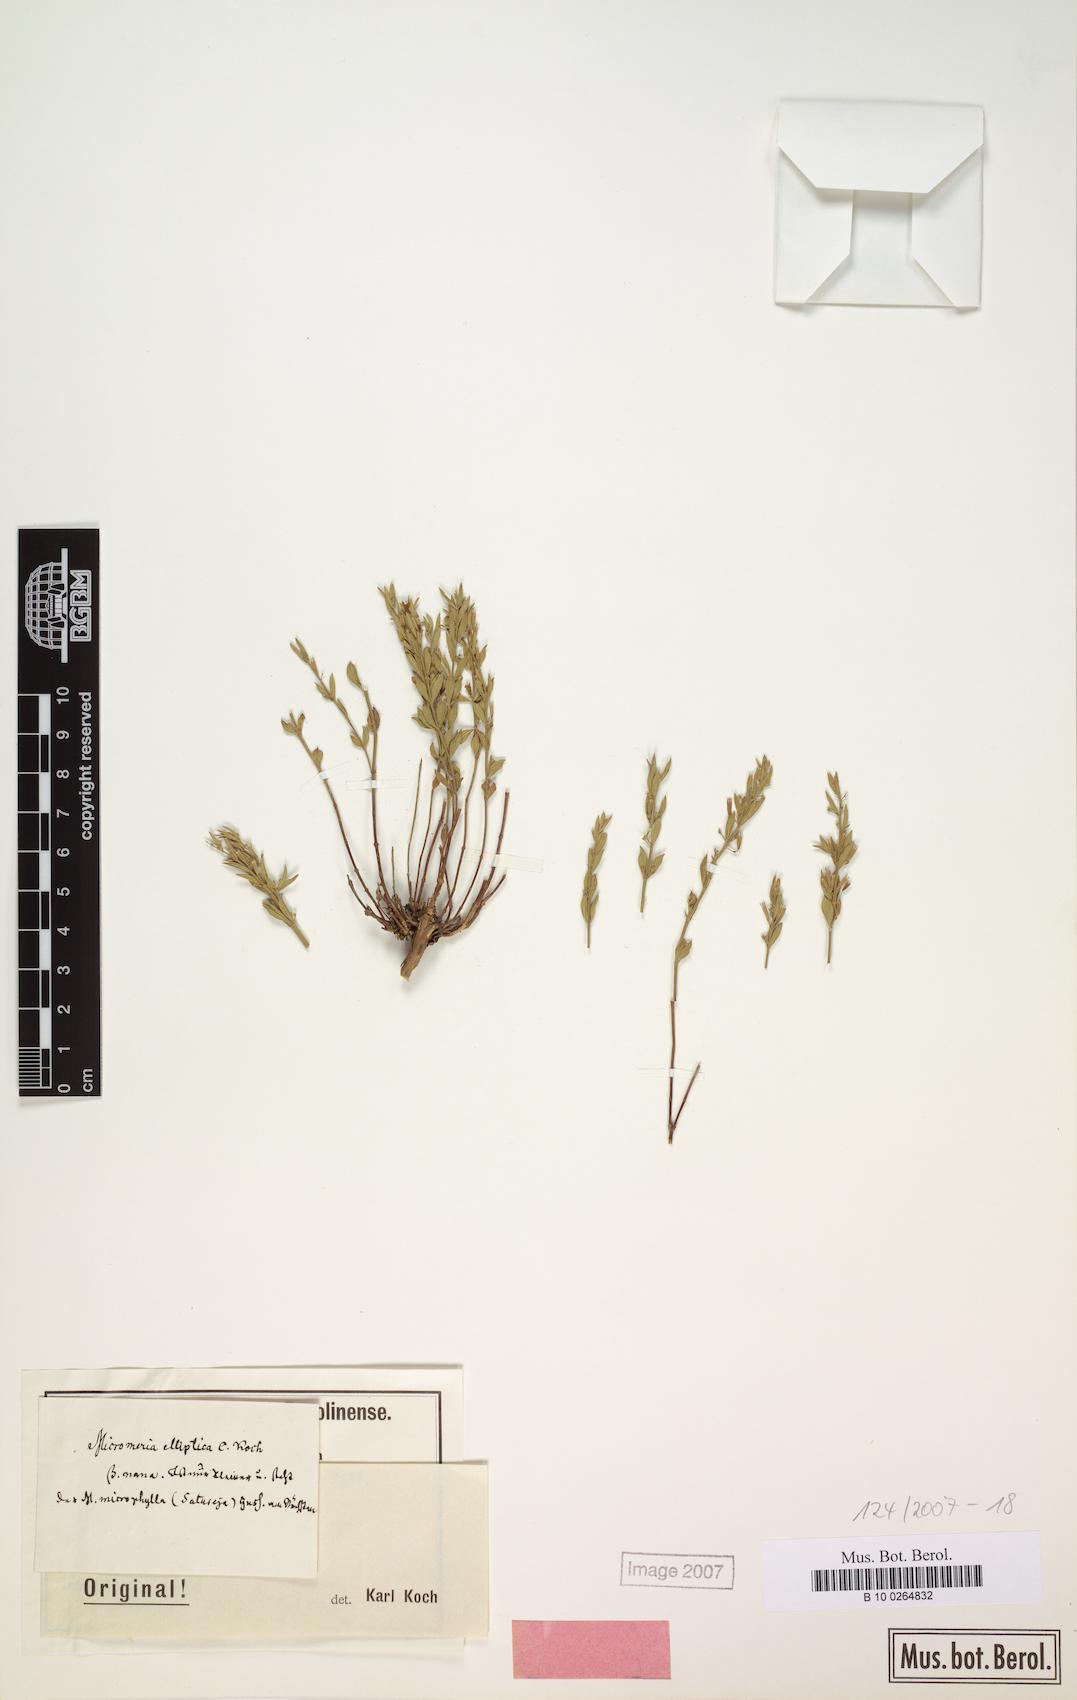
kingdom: Plantae
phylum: Tracheophyta
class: Magnoliopsida
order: Lamiales
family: Lamiaceae
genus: Micromeria
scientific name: Micromeria elliptica
